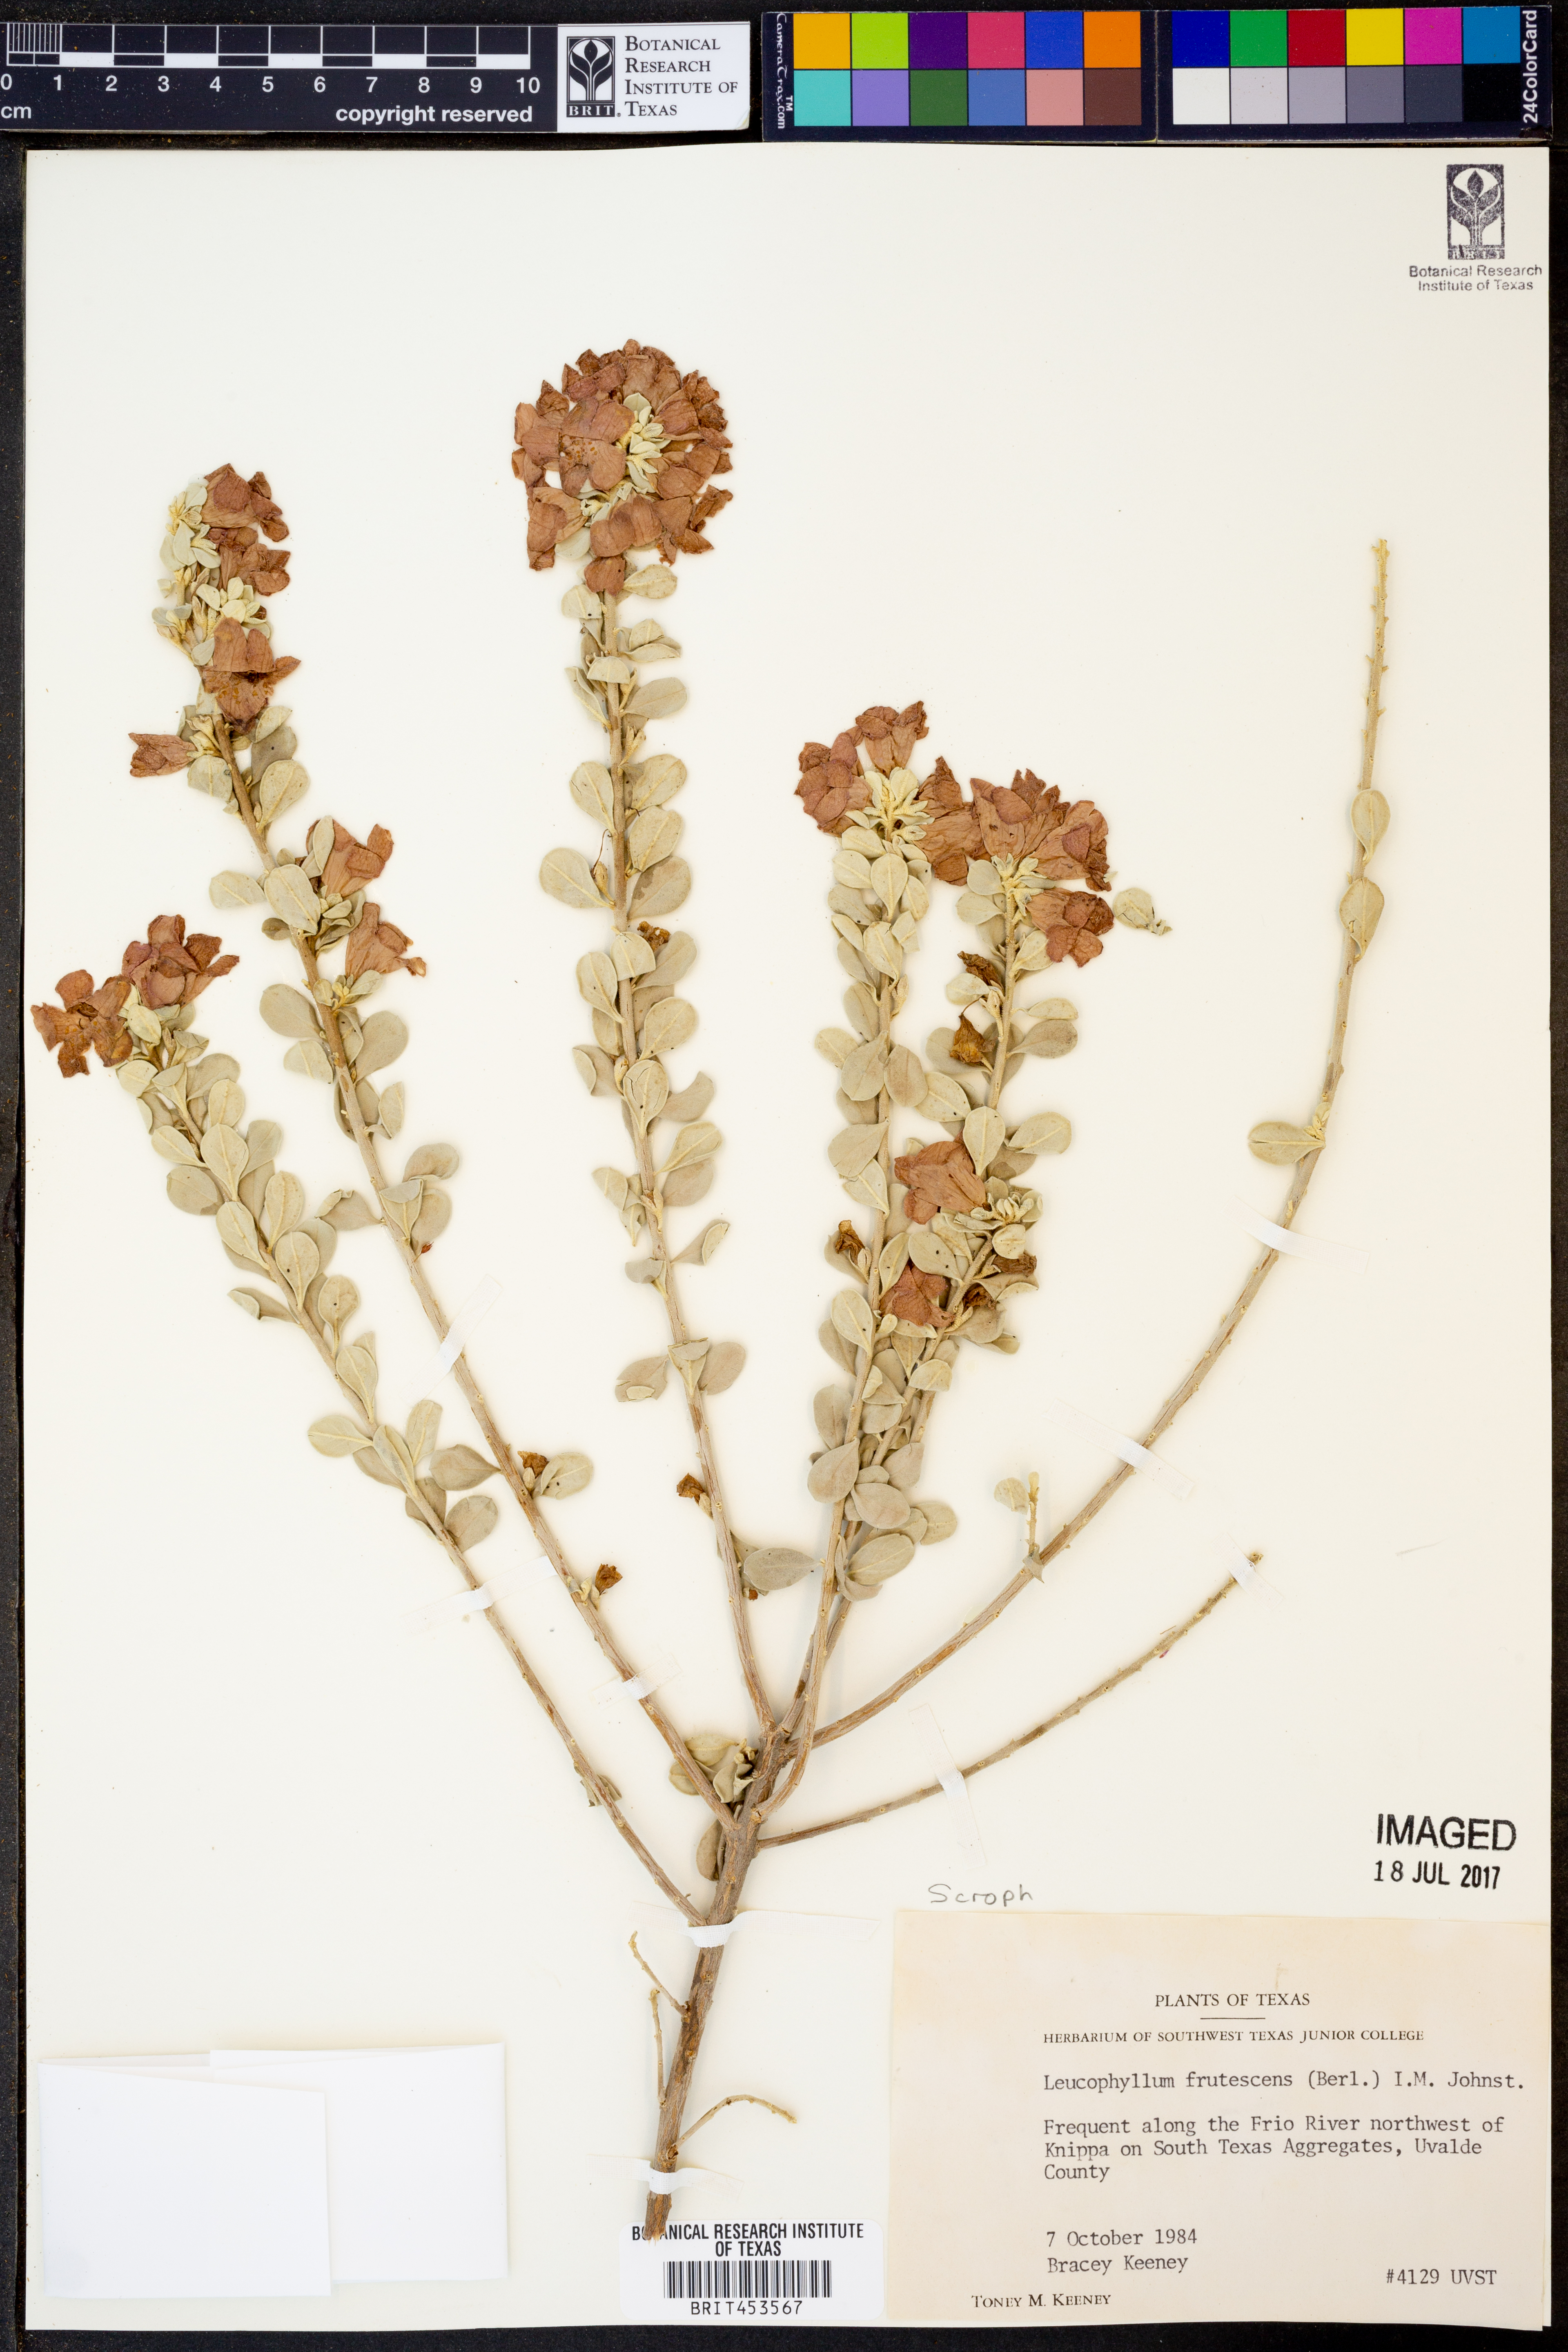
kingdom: Plantae
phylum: Tracheophyta
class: Magnoliopsida
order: Lamiales
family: Scrophulariaceae
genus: Leucophyllum
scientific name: Leucophyllum frutescens
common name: Texas silverleaf
